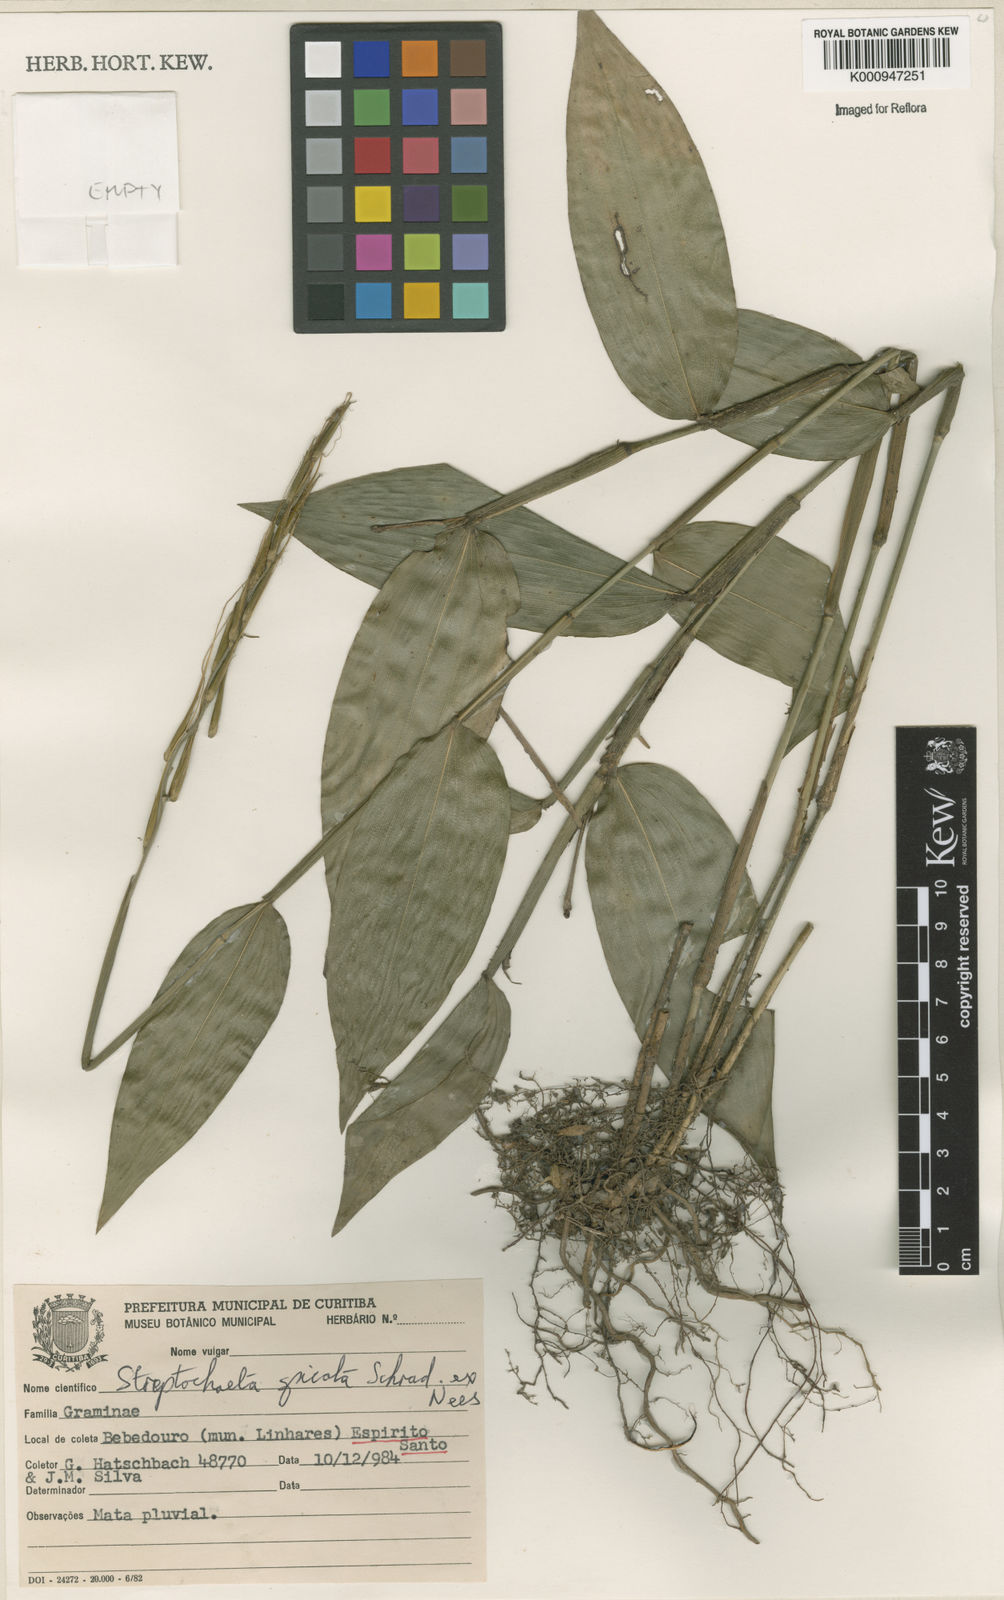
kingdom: Plantae
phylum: Tracheophyta
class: Liliopsida
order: Poales
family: Poaceae
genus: Streptochaeta
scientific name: Streptochaeta spicata
